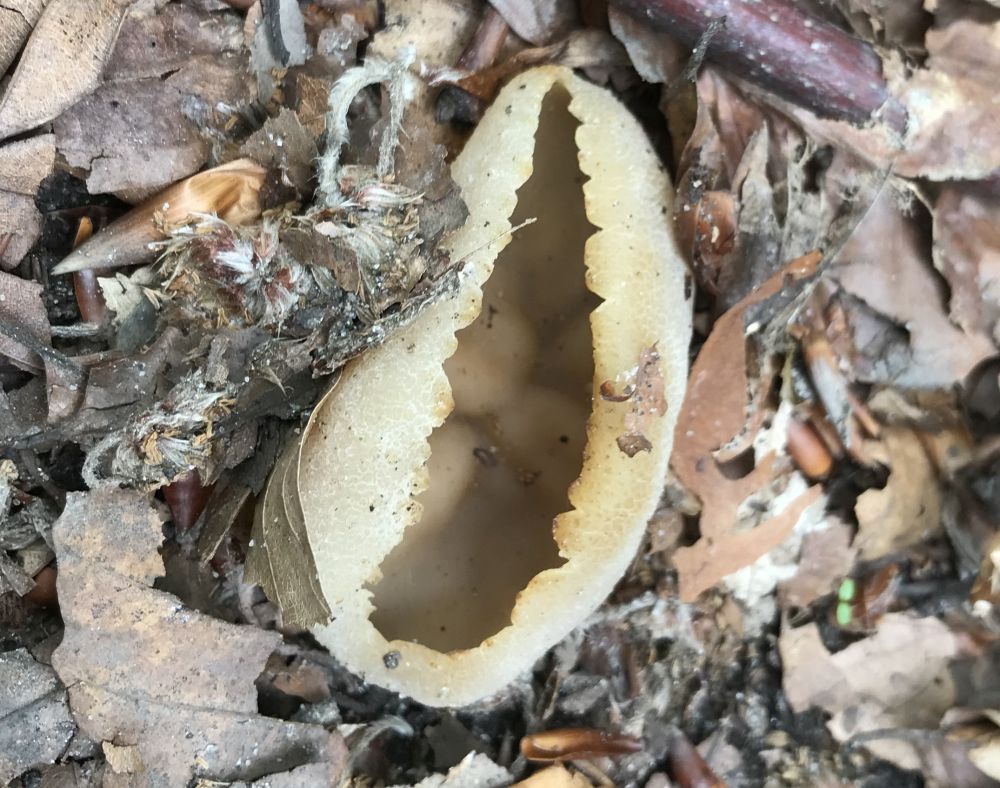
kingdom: Fungi
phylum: Ascomycota
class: Pezizomycetes
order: Pezizales
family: Pezizaceae
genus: Peziza
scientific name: Peziza
